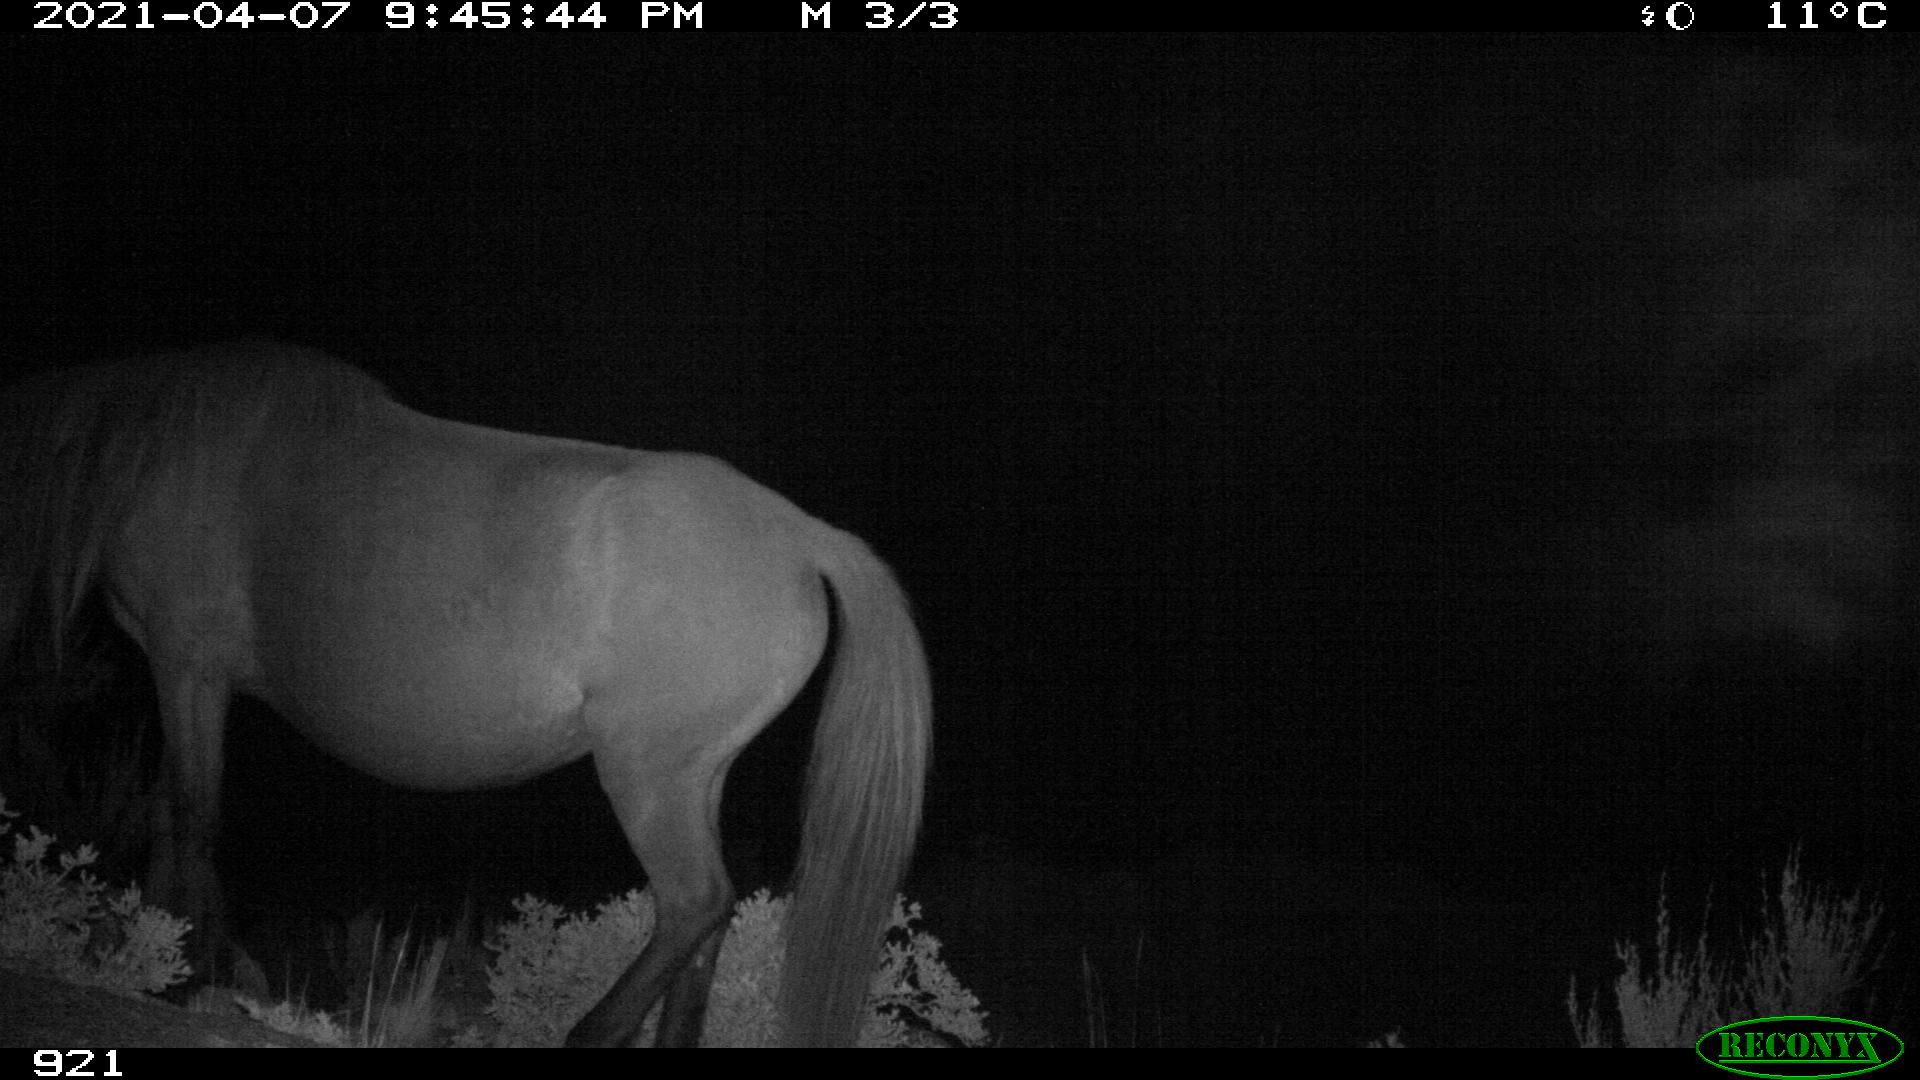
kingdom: Animalia
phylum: Chordata
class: Mammalia
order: Perissodactyla
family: Equidae
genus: Equus
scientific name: Equus caballus
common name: Horse
